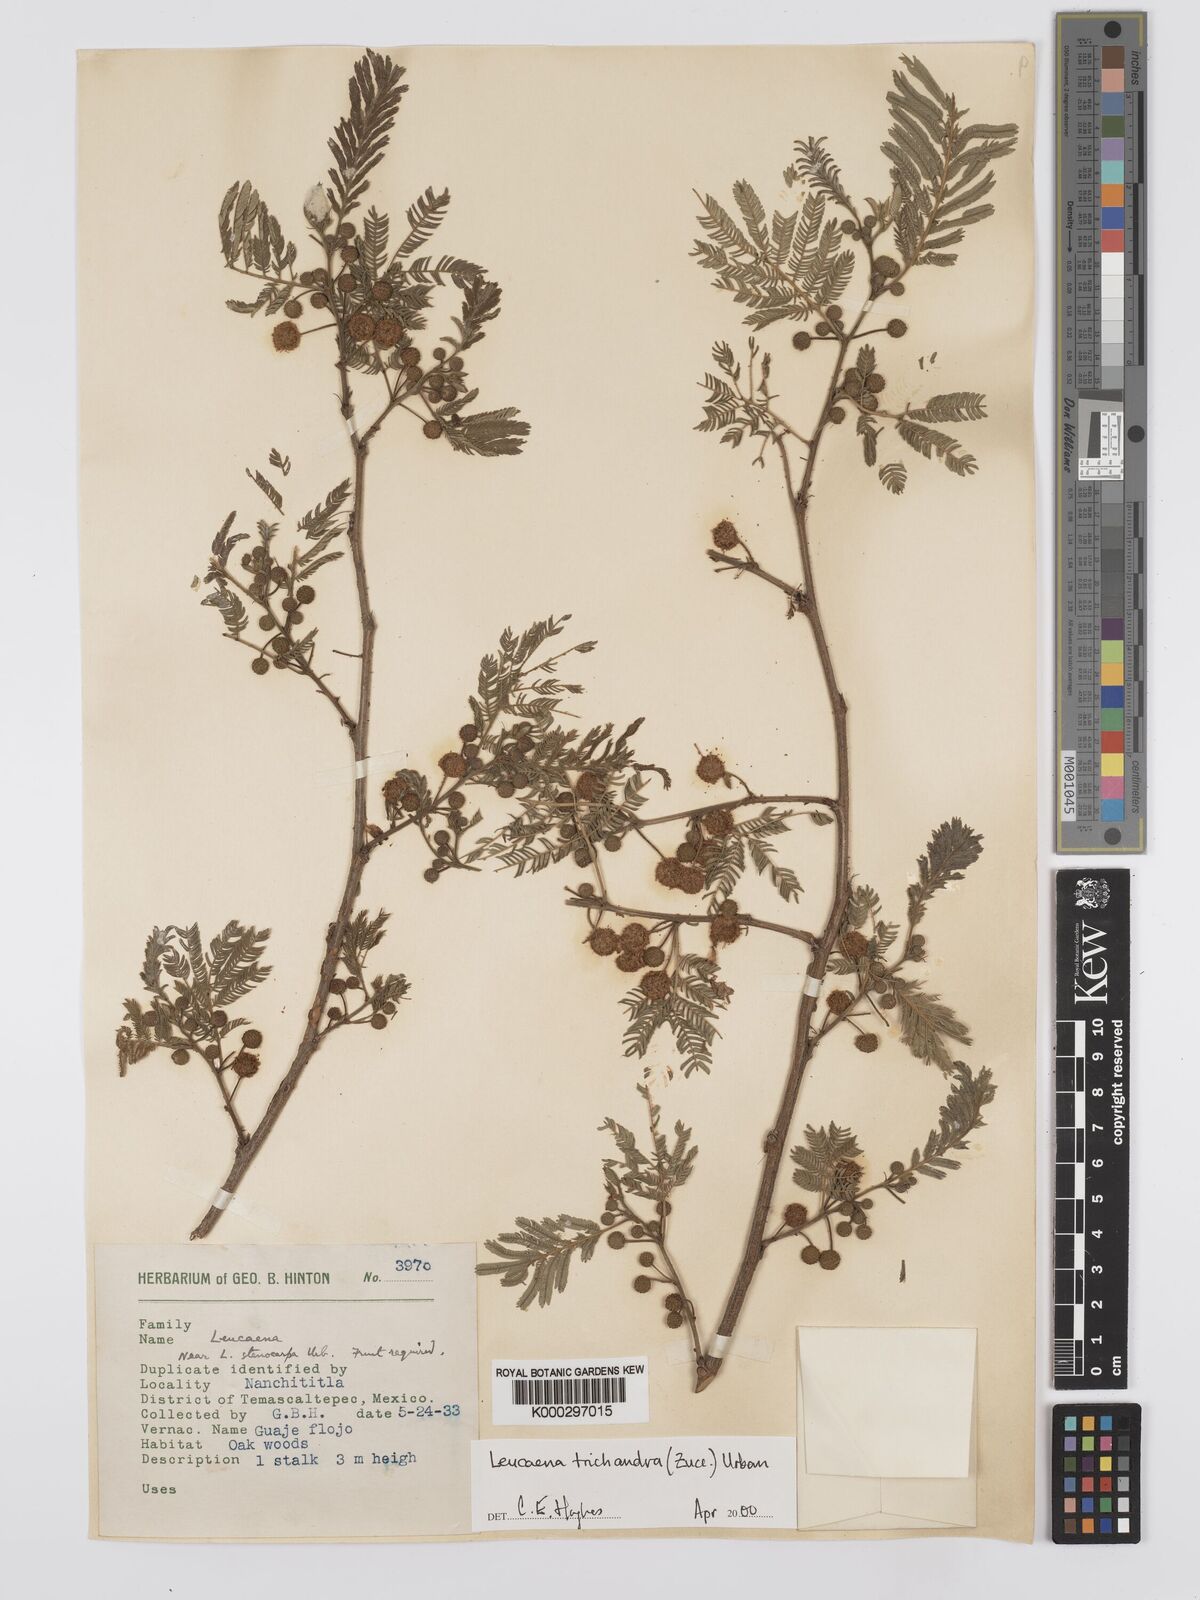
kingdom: Plantae
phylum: Tracheophyta
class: Magnoliopsida
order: Fabales
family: Fabaceae
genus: Leucaena
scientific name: Leucaena trichandra
